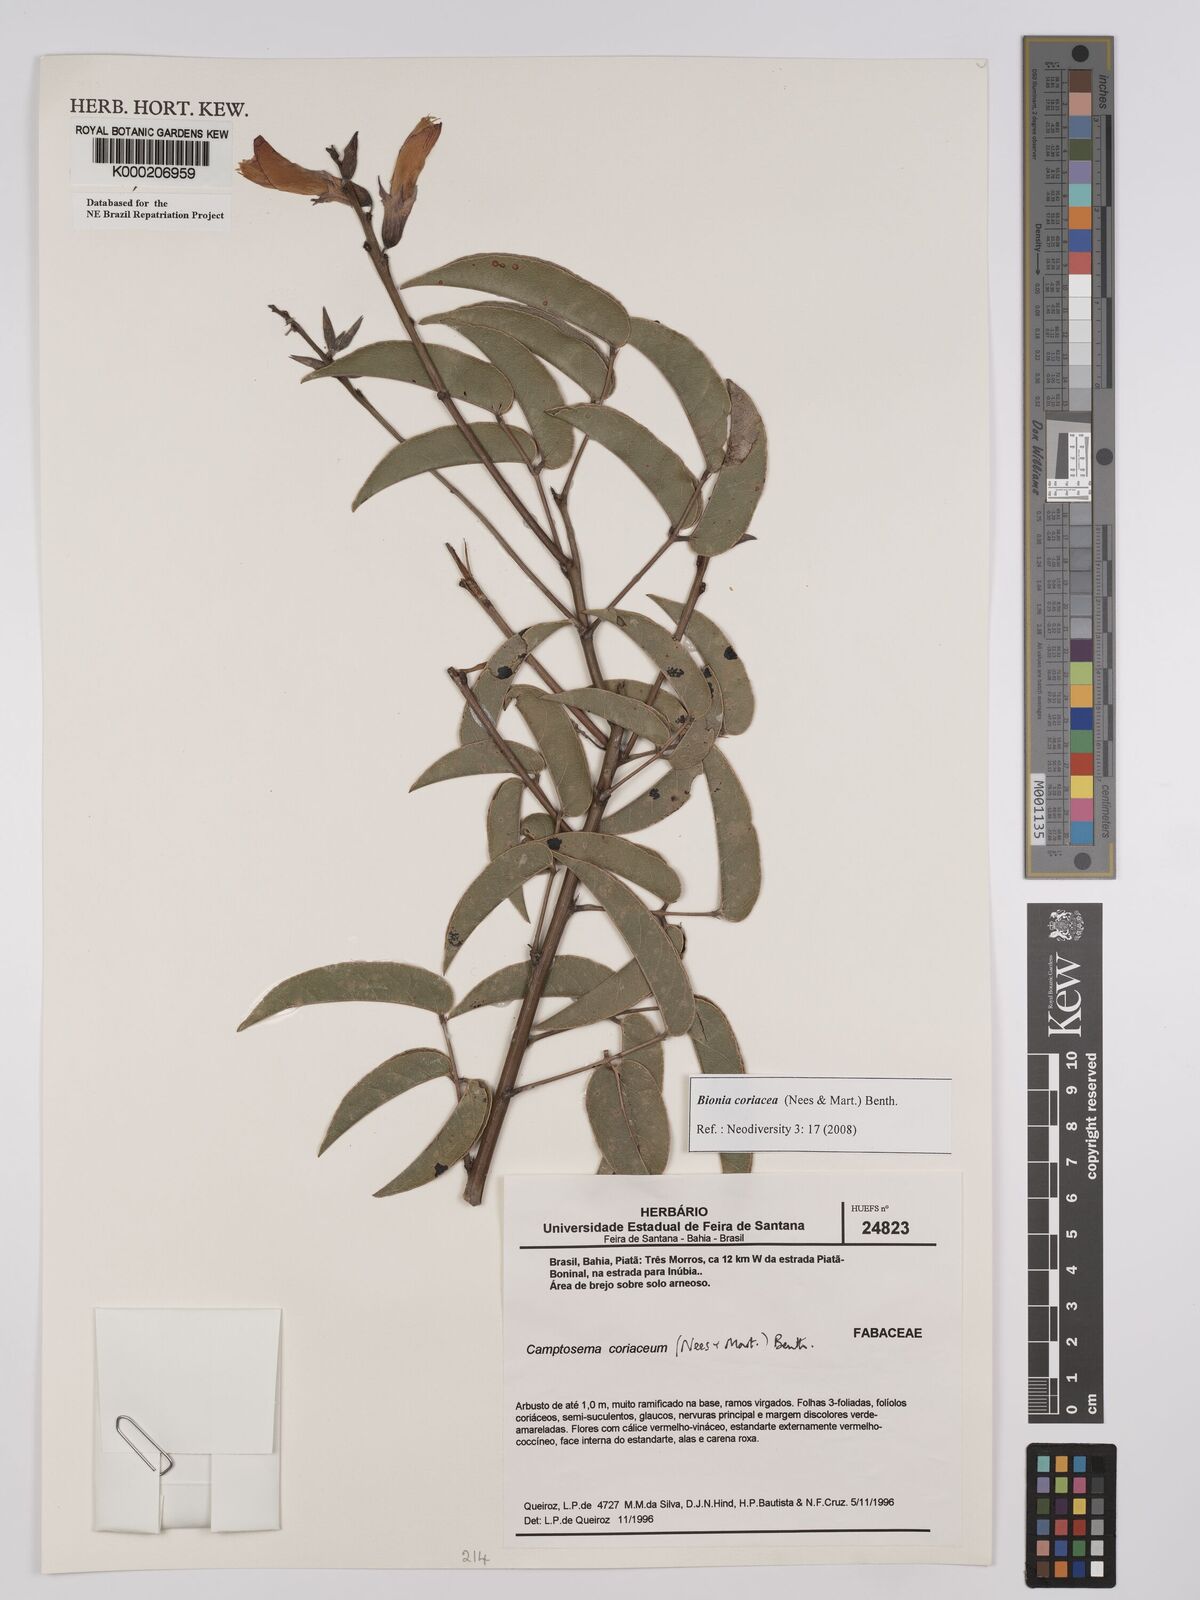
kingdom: Plantae
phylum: Tracheophyta
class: Magnoliopsida
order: Fabales
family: Fabaceae
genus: Camptosema
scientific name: Camptosema coriaceum
